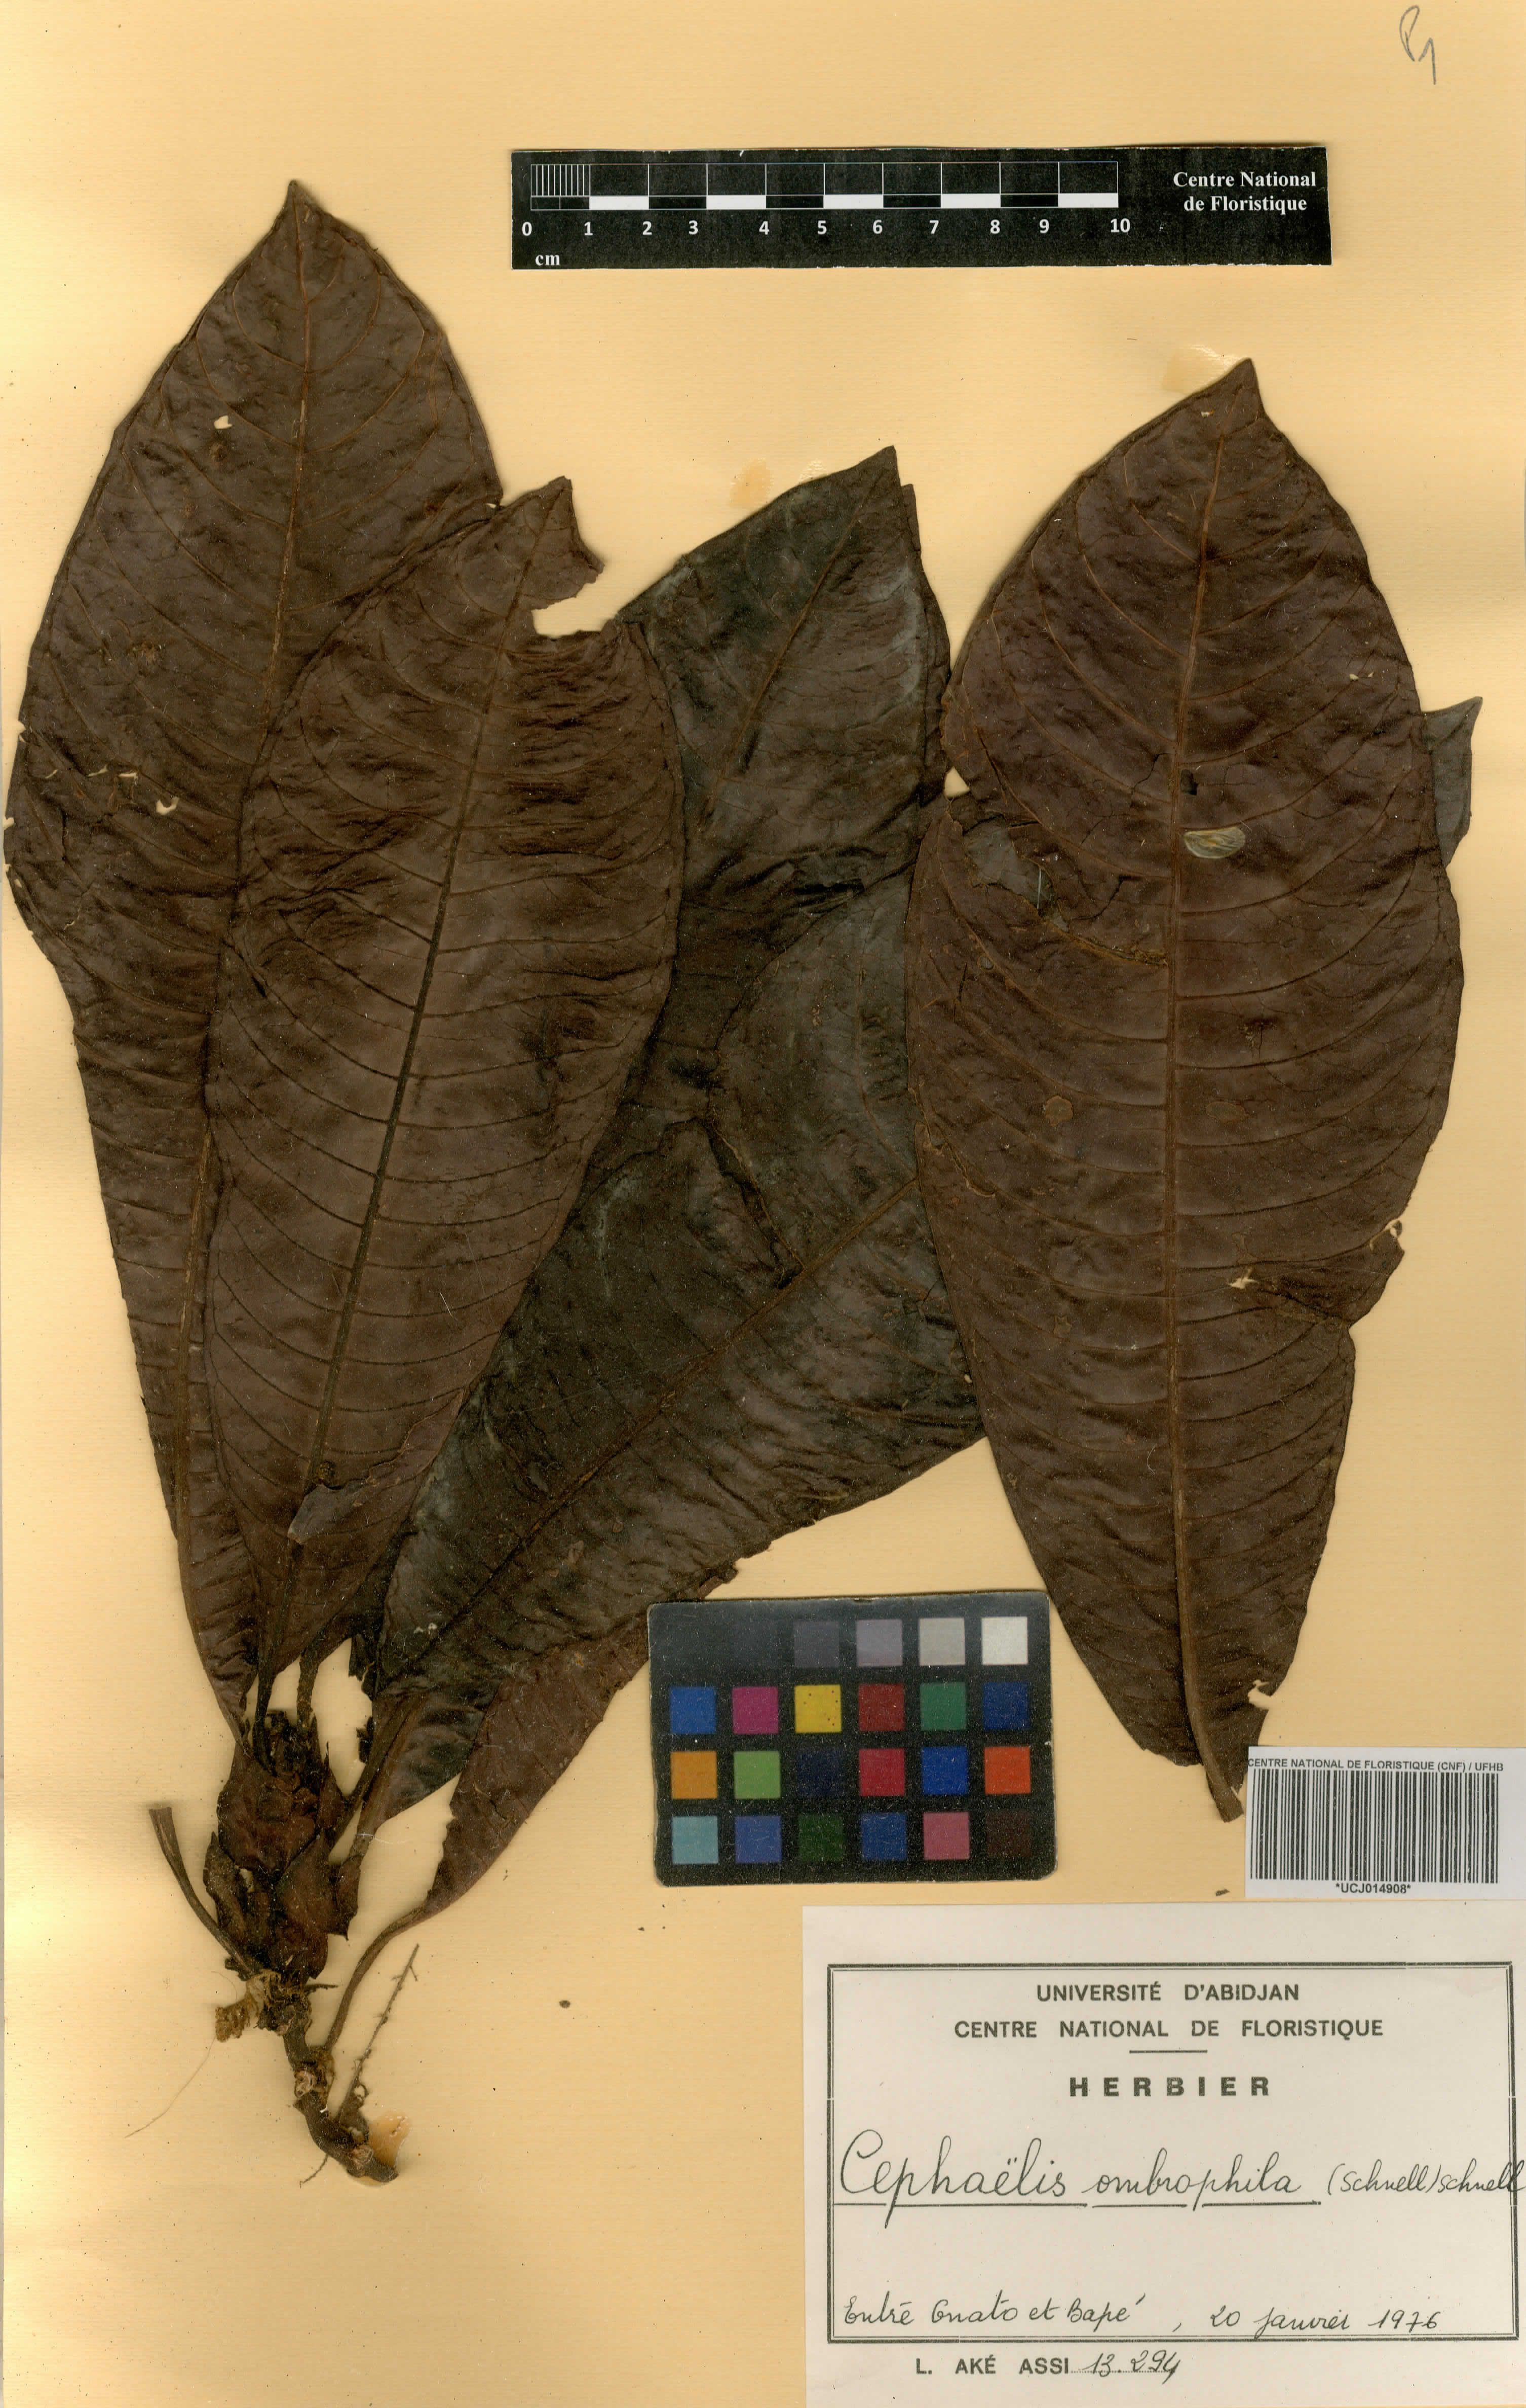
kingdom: Plantae
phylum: Tracheophyta
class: Magnoliopsida
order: Gentianales
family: Rubiaceae
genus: Psychotria
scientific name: Psychotria ombrophila
